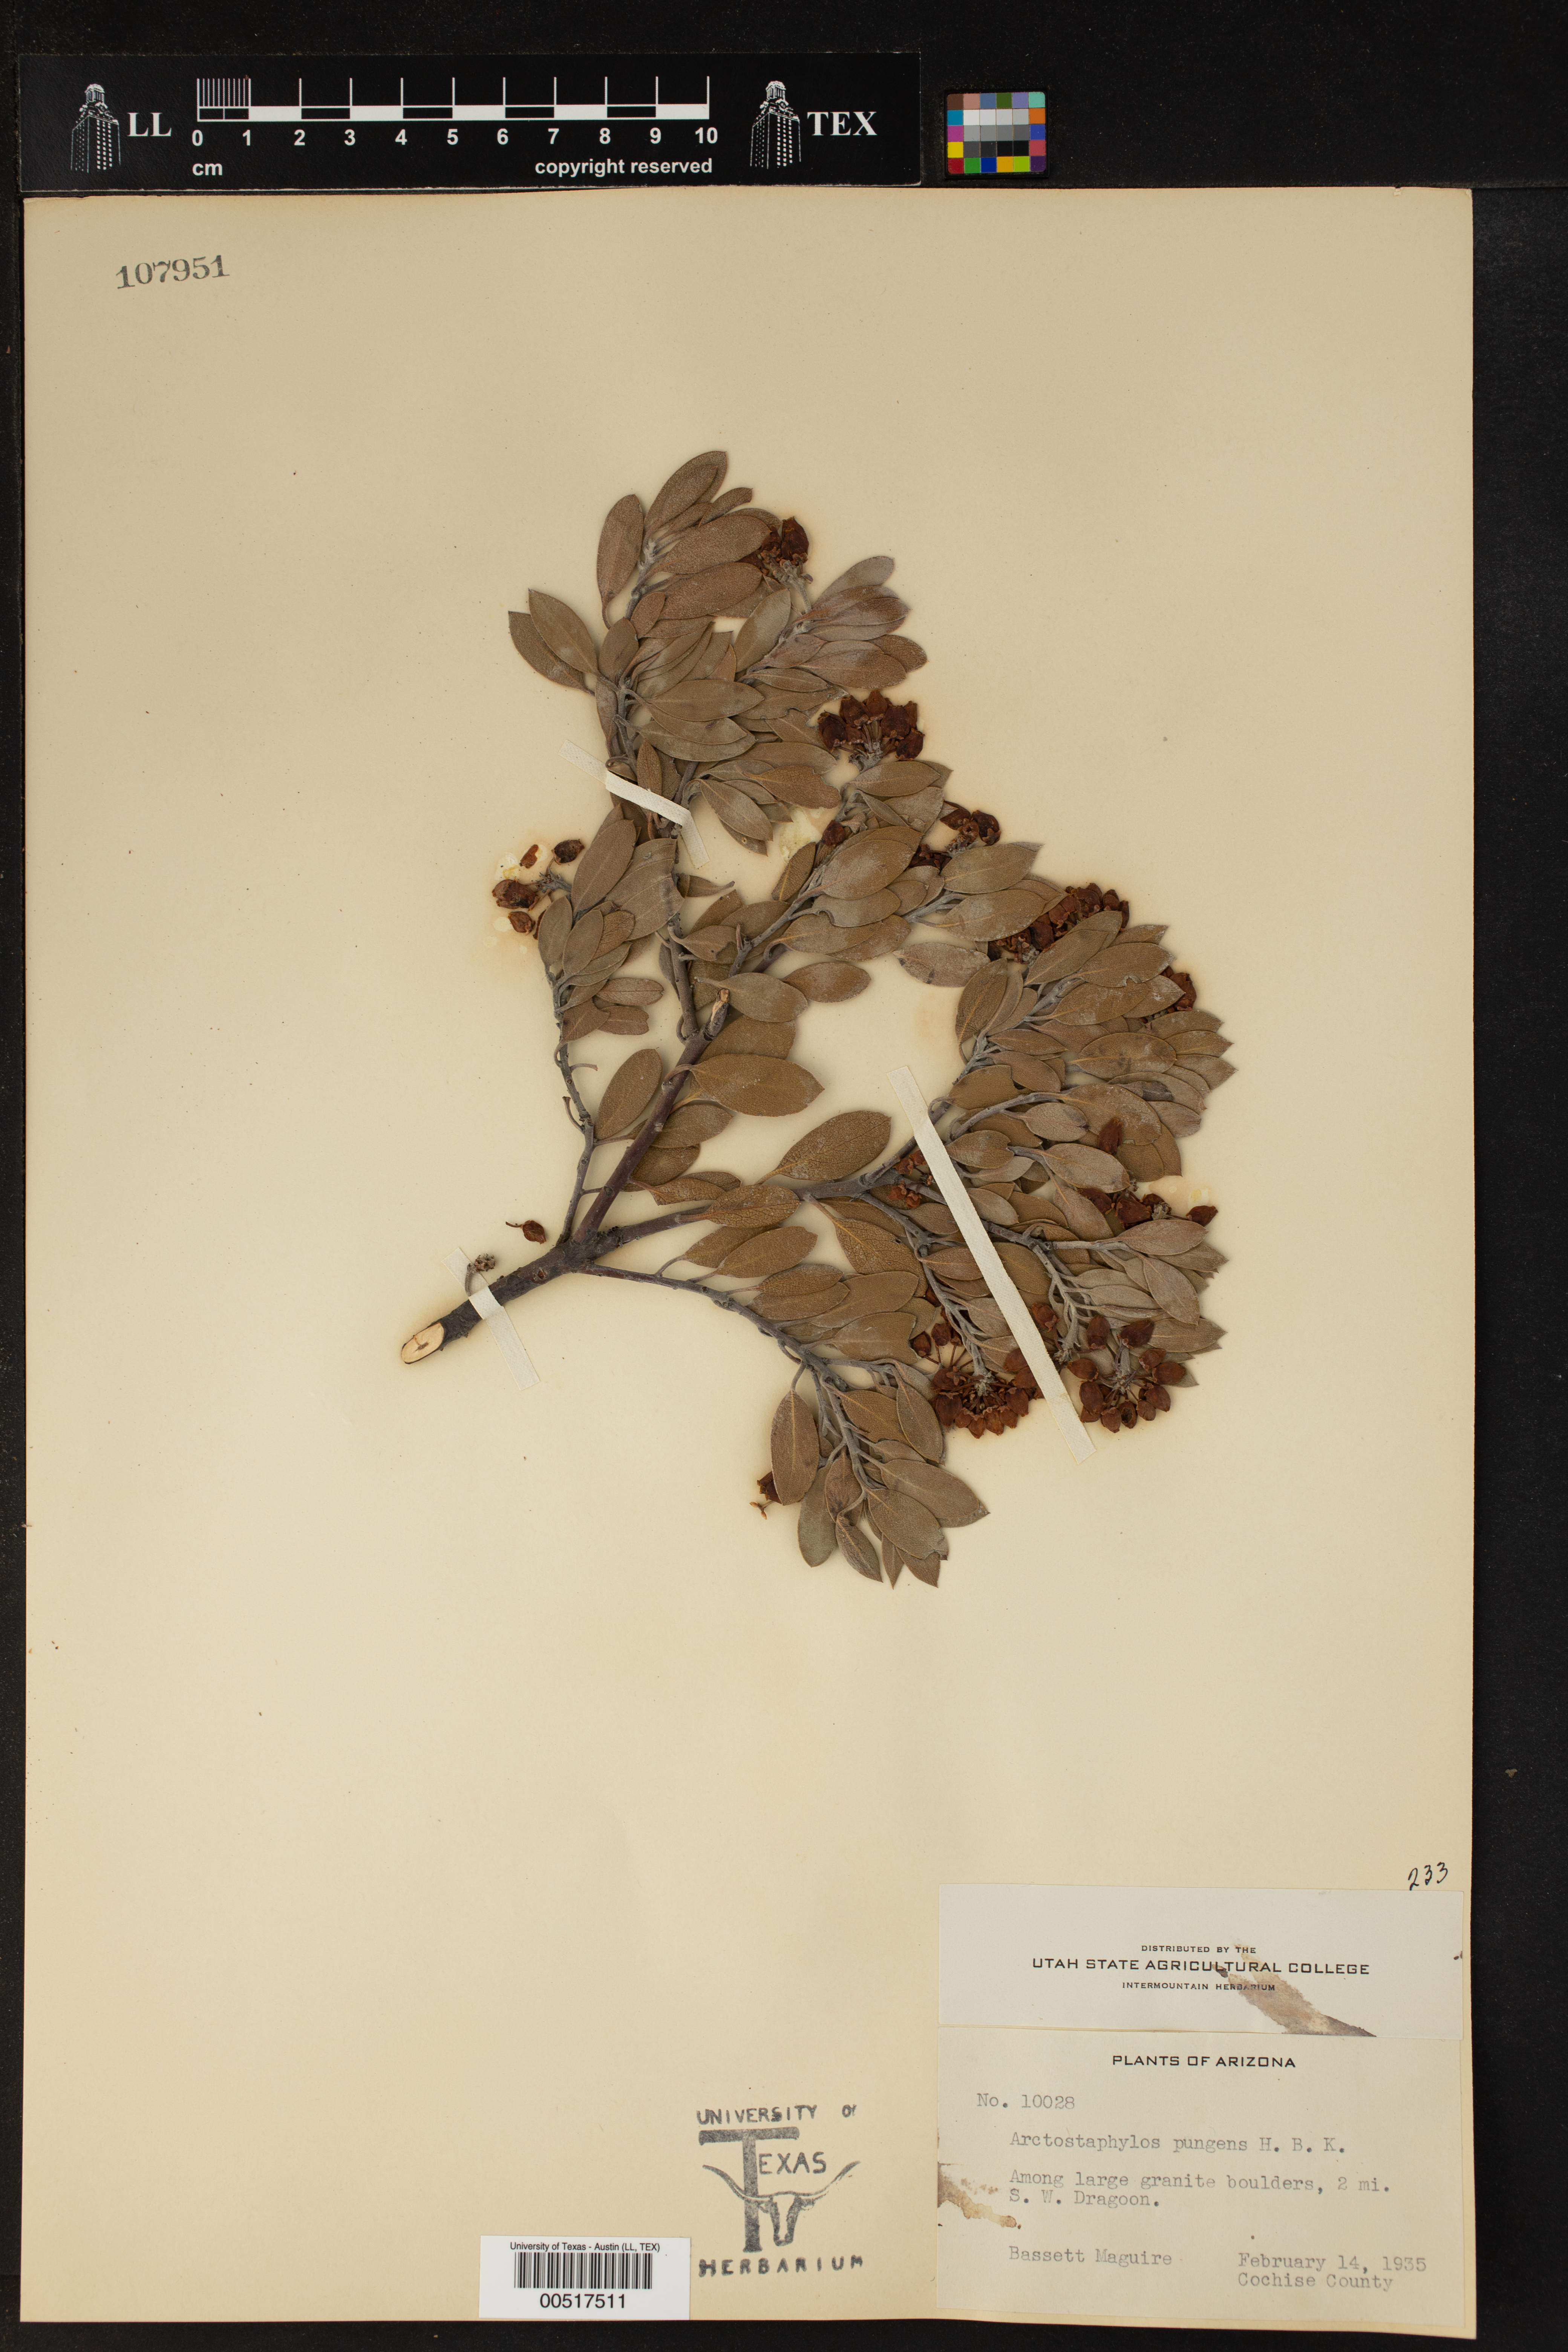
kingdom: Plantae
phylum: Tracheophyta
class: Magnoliopsida
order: Ericales
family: Ericaceae
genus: Arctostaphylos
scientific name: Arctostaphylos pungens
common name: Mexican manzanita
